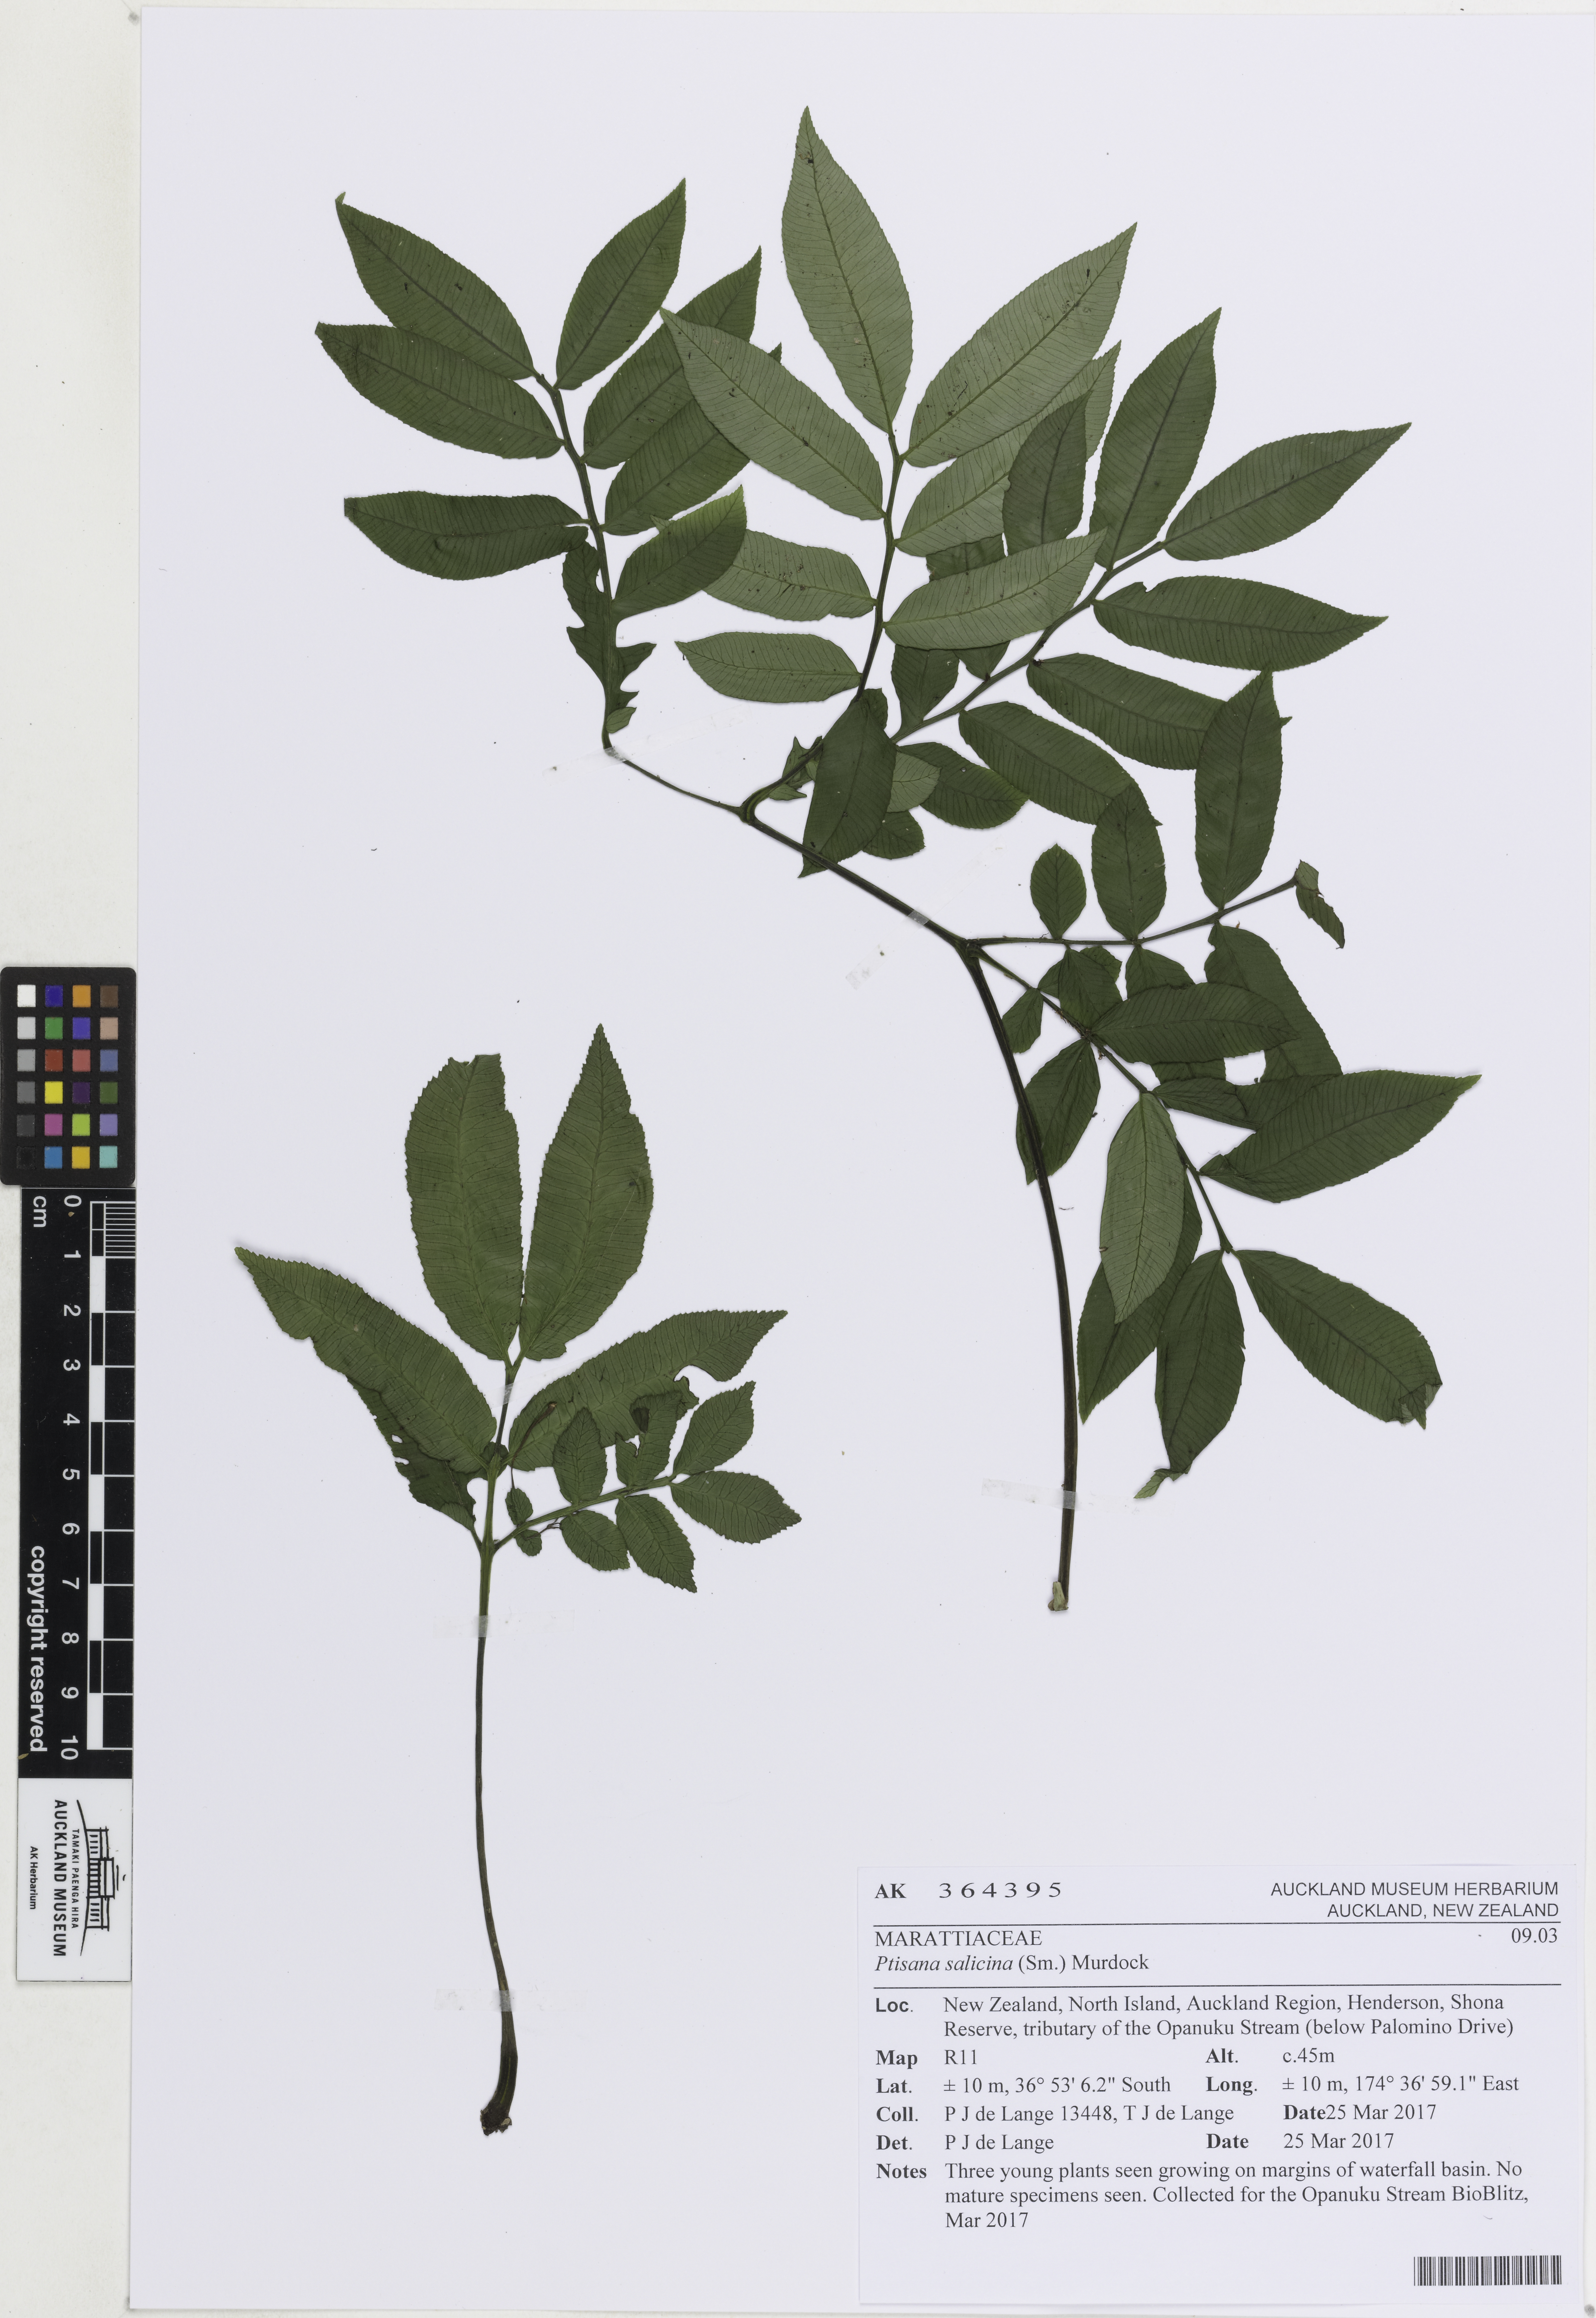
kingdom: Plantae
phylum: Tracheophyta
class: Polypodiopsida
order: Marattiales
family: Marattiaceae
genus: Ptisana
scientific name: Ptisana salicina
